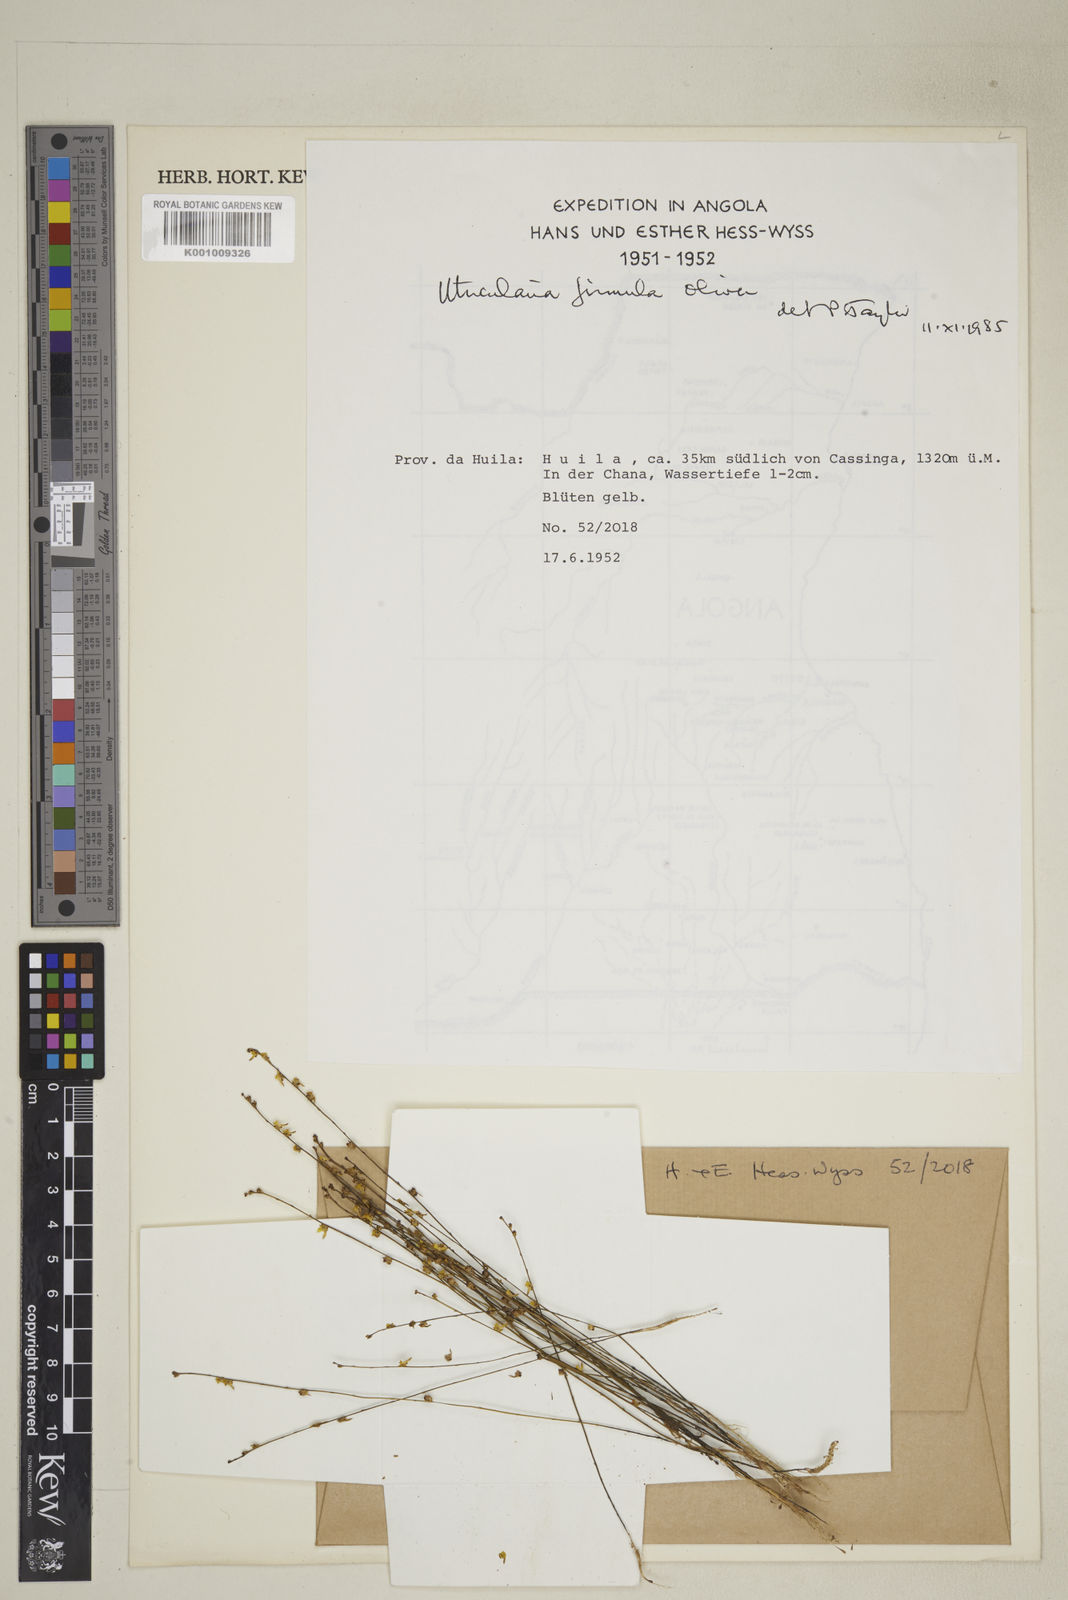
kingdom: Plantae
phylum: Tracheophyta
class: Magnoliopsida
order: Lamiales
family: Lentibulariaceae
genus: Utricularia
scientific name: Utricularia firmula
